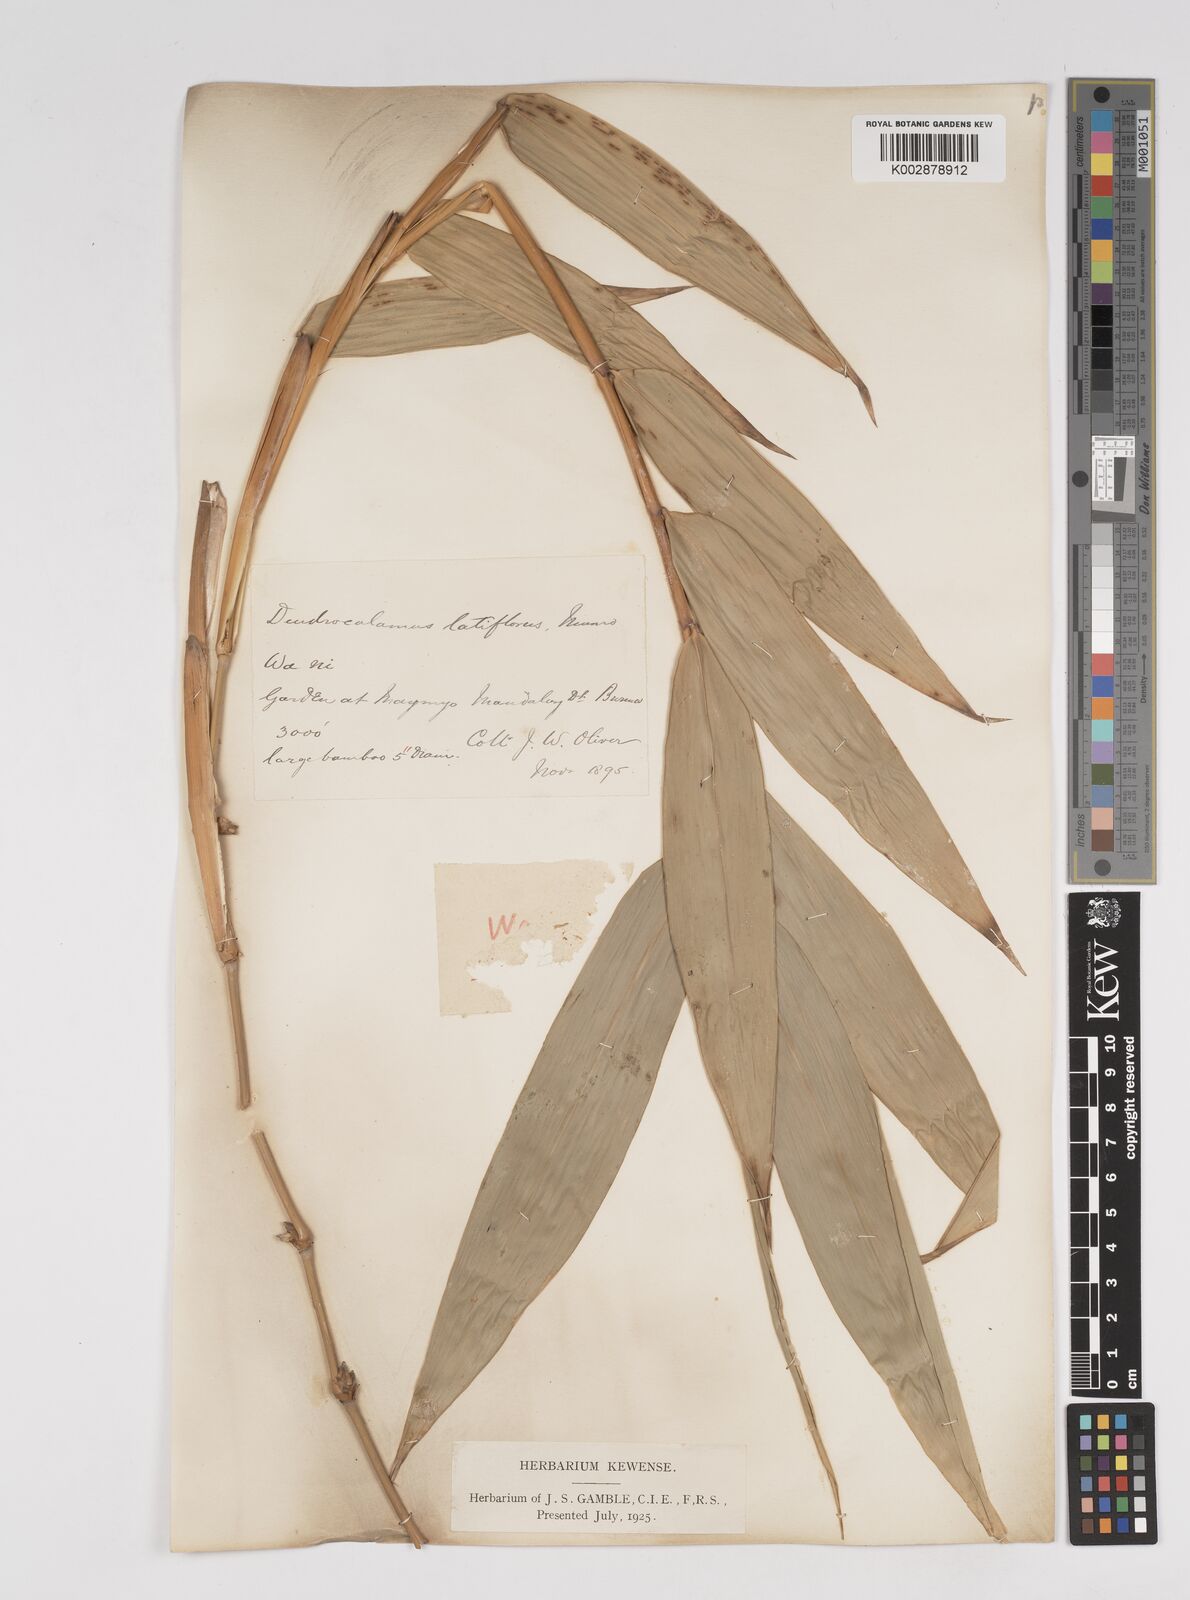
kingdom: Plantae
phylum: Tracheophyta
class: Liliopsida
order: Poales
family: Poaceae
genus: Dendrocalamus
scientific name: Dendrocalamus latiflorus
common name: Giant bamboo
